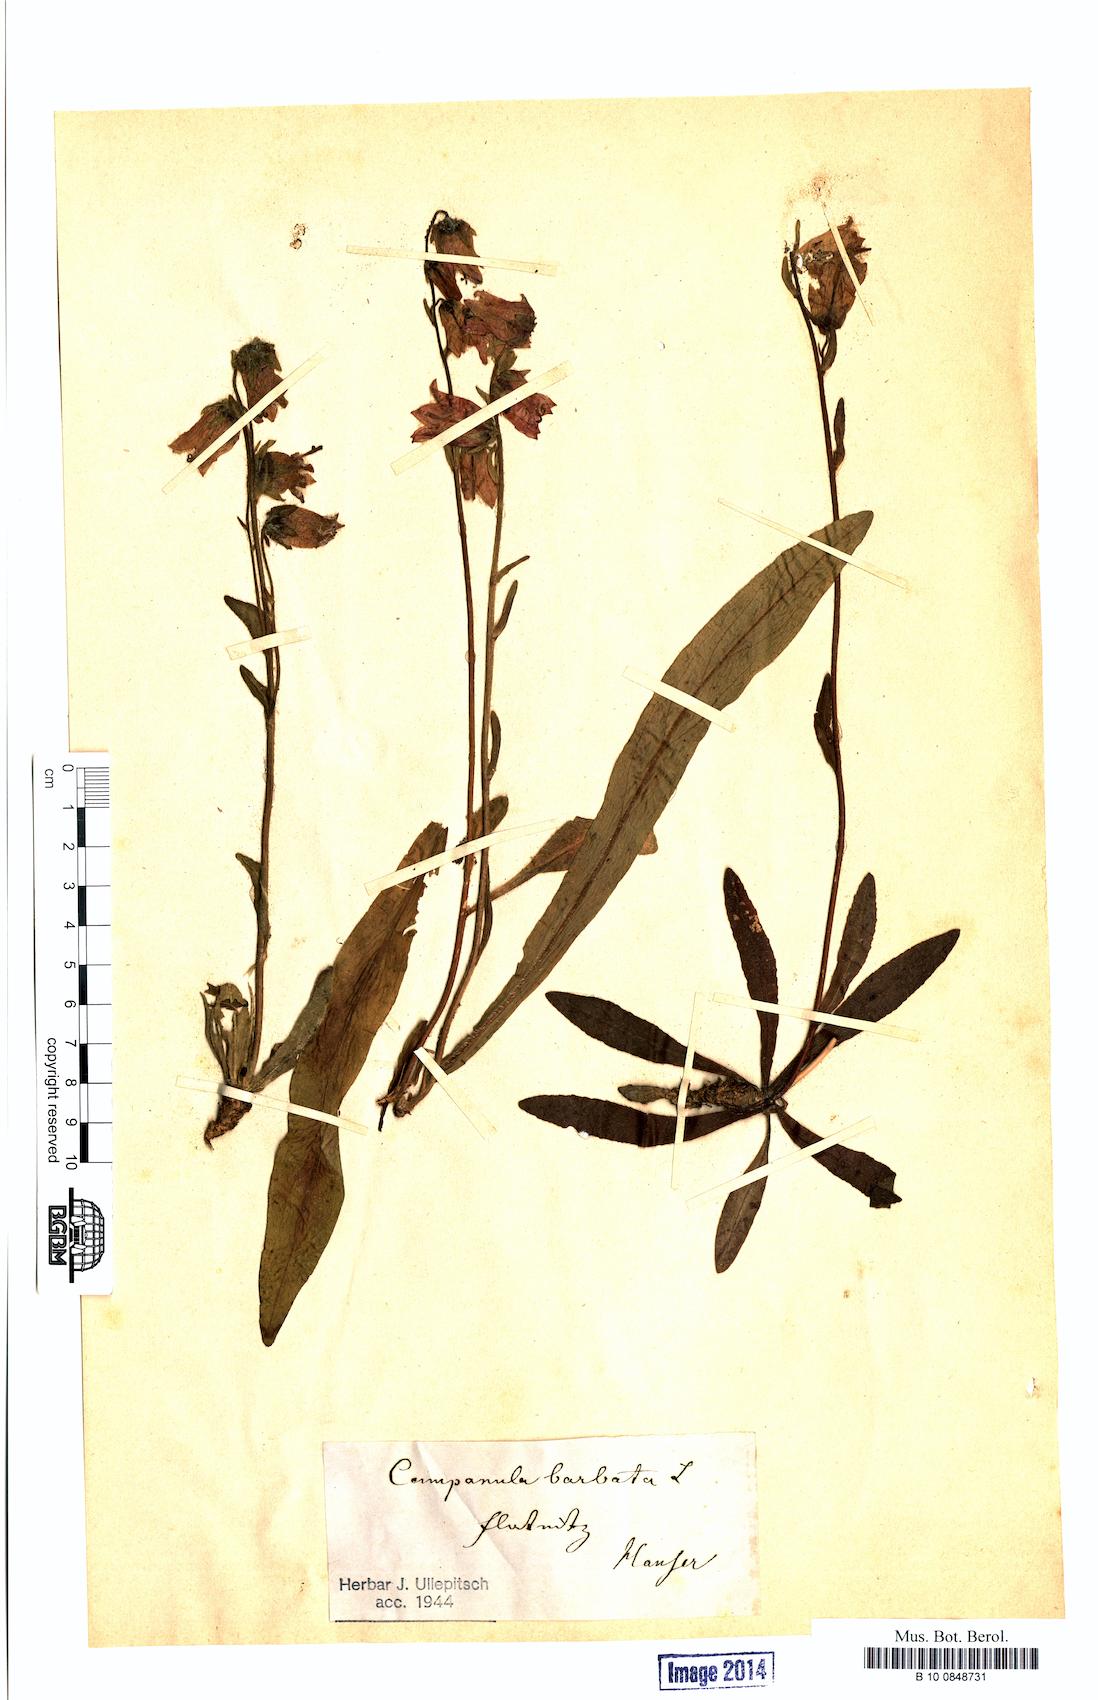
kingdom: Plantae
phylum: Tracheophyta
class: Magnoliopsida
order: Asterales
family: Campanulaceae
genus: Campanula
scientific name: Campanula barbata
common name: Bearded bellflower
